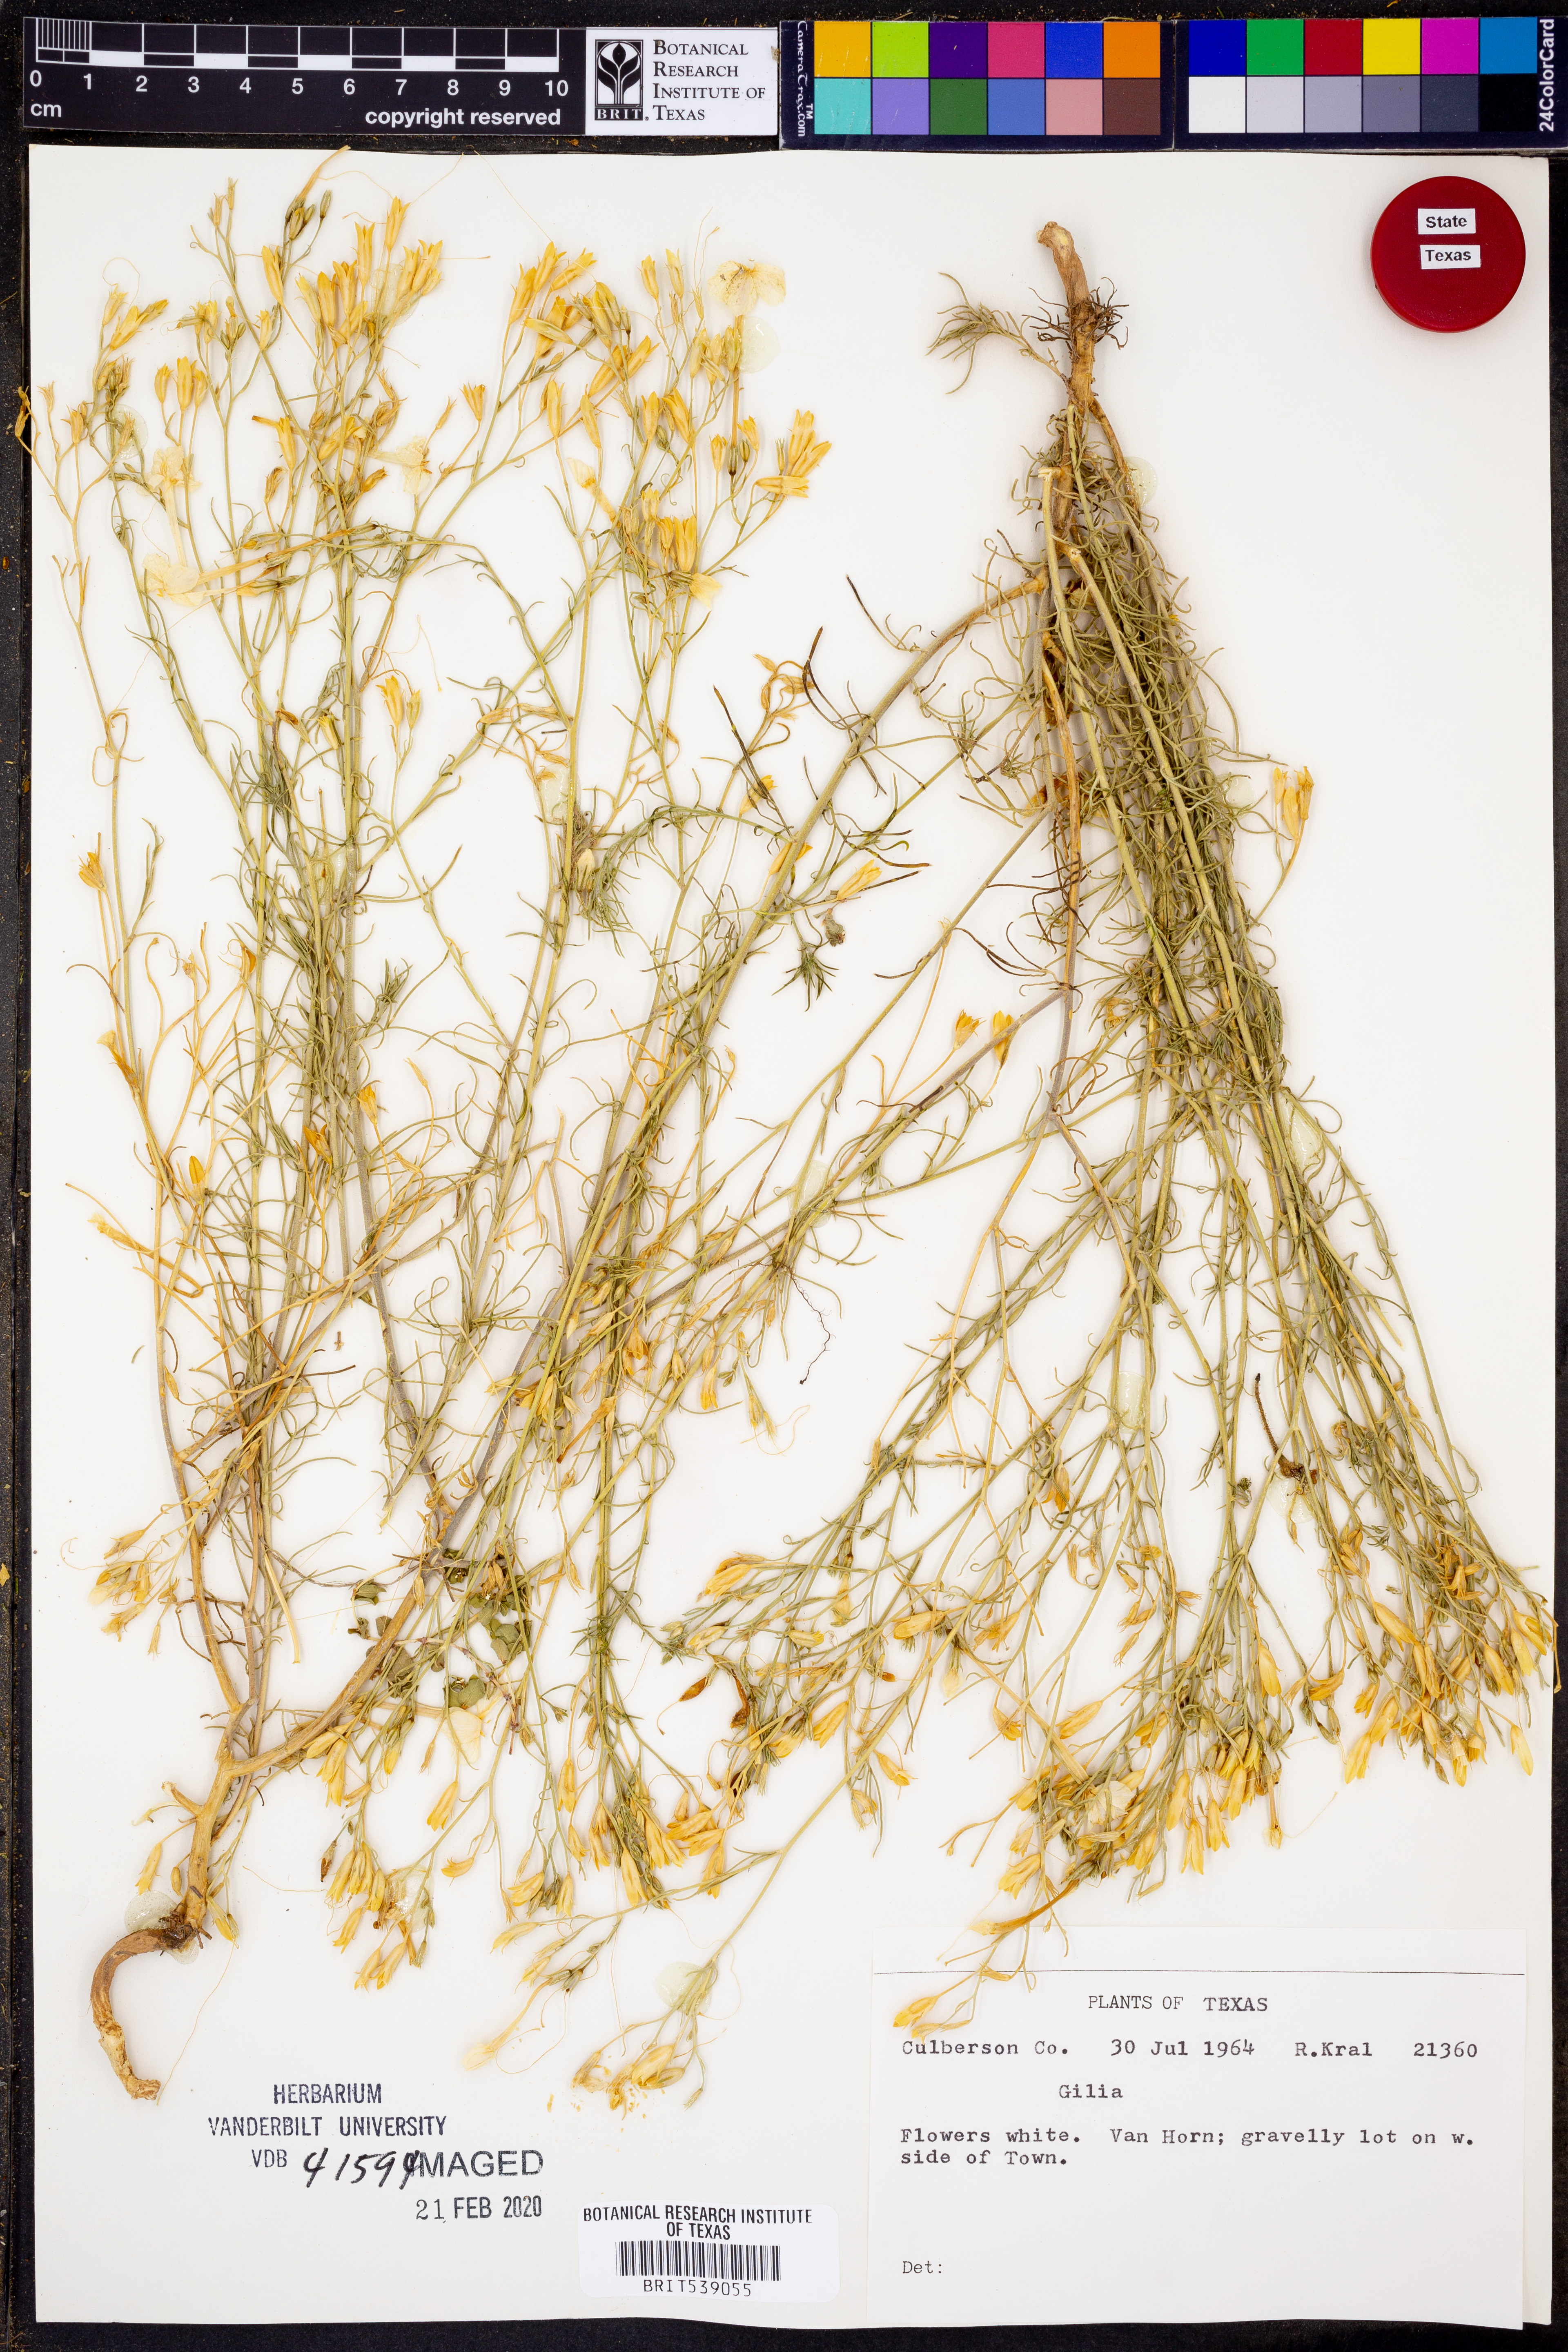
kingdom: Plantae
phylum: Tracheophyta
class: Magnoliopsida
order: Ericales
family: Polemoniaceae
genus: Gilia
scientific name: Gilia
